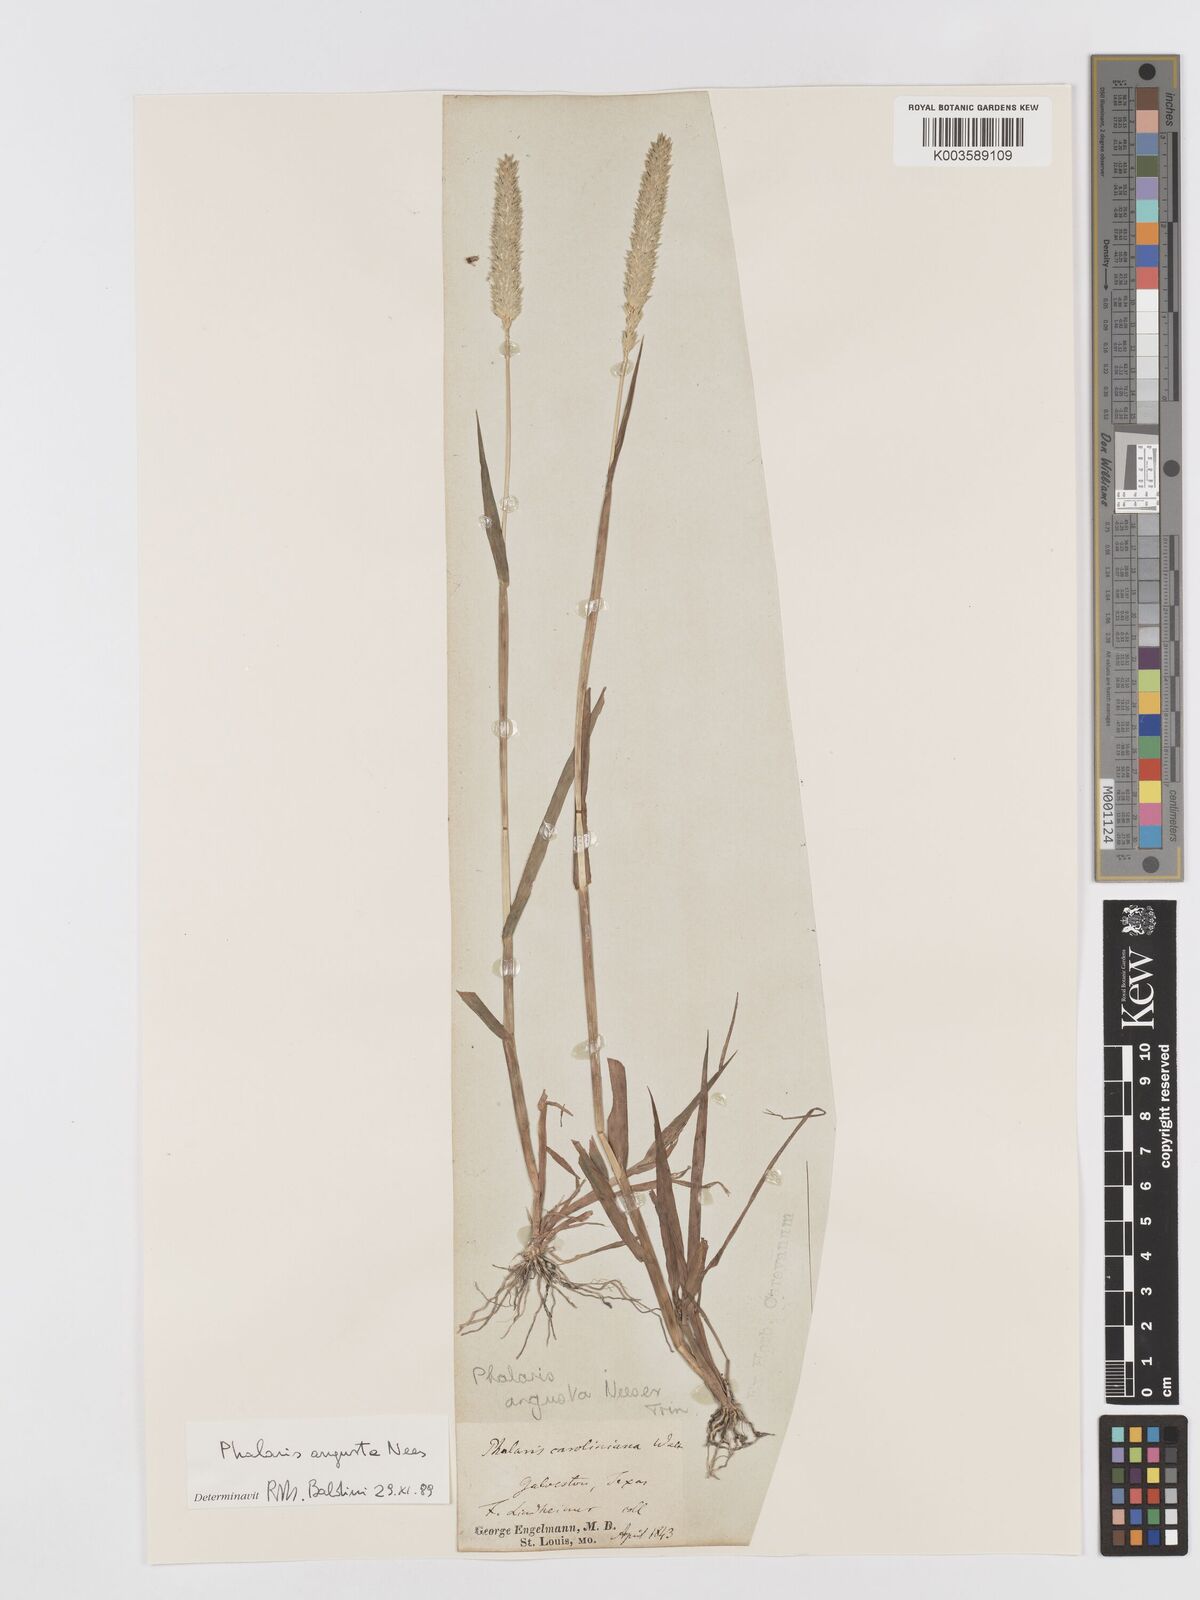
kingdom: Plantae
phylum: Tracheophyta
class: Liliopsida
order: Poales
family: Poaceae
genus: Phalaris
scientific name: Phalaris
